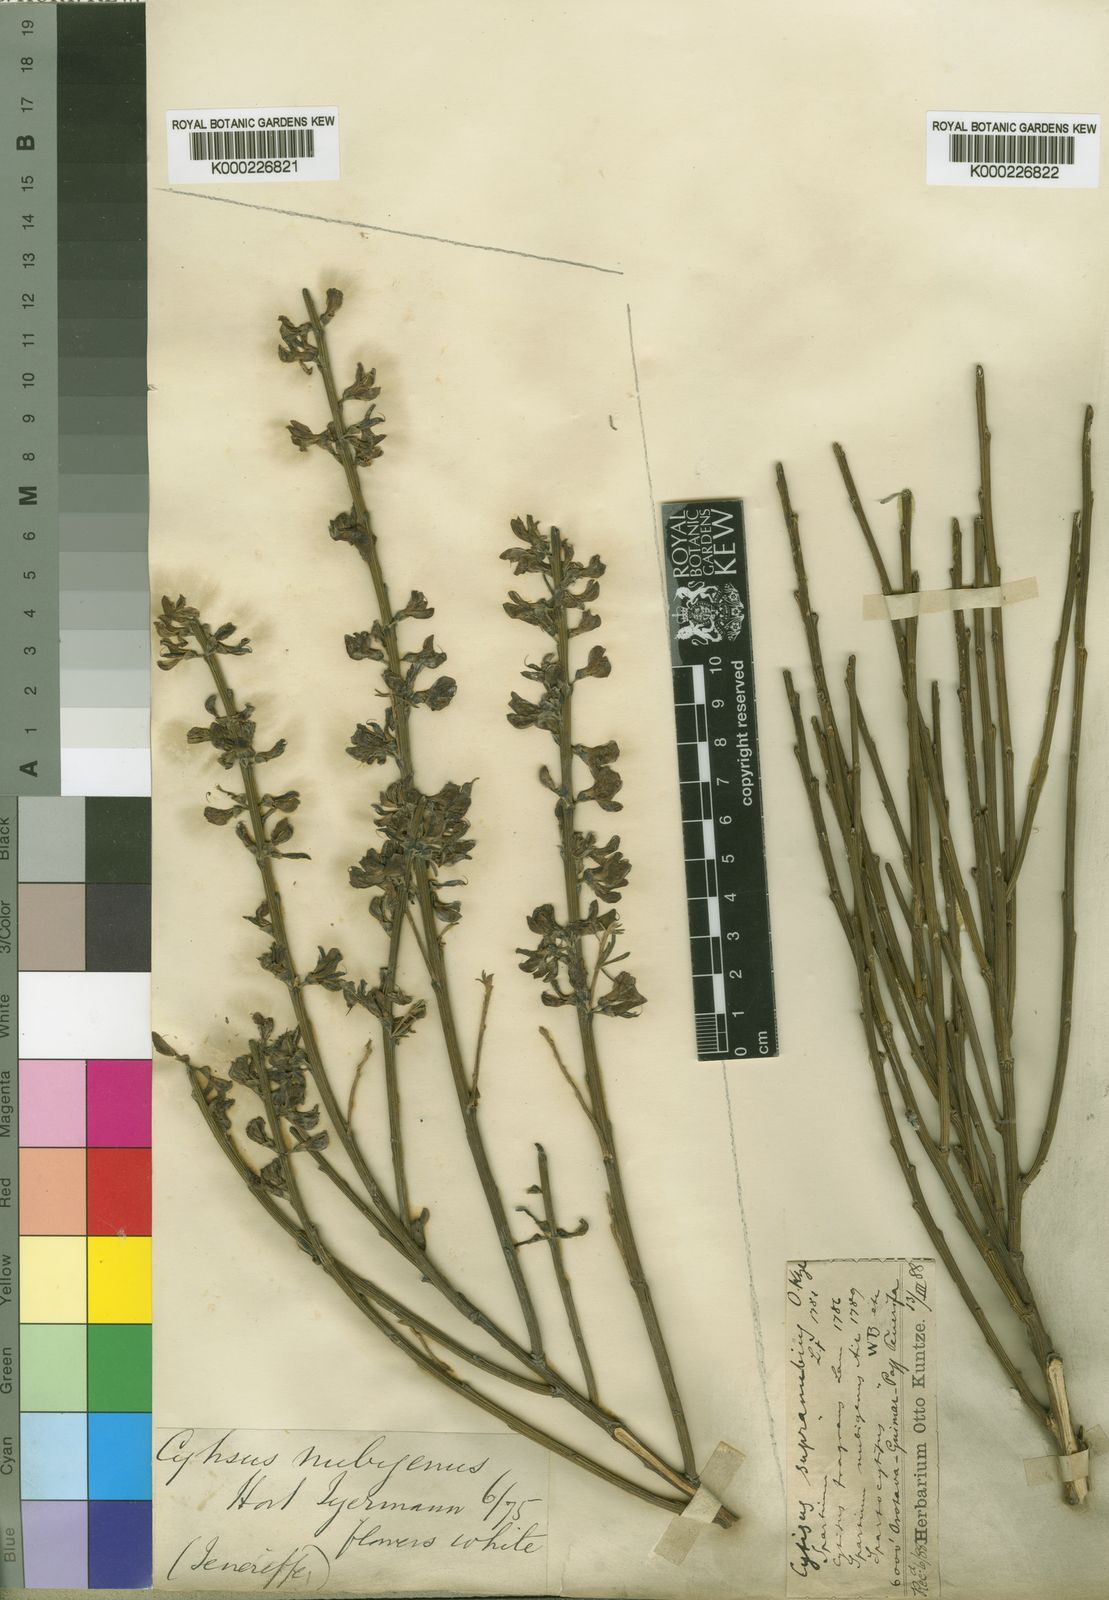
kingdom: Plantae
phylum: Tracheophyta
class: Magnoliopsida
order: Fabales
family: Fabaceae
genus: Cytisus
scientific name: Cytisus supranubius
